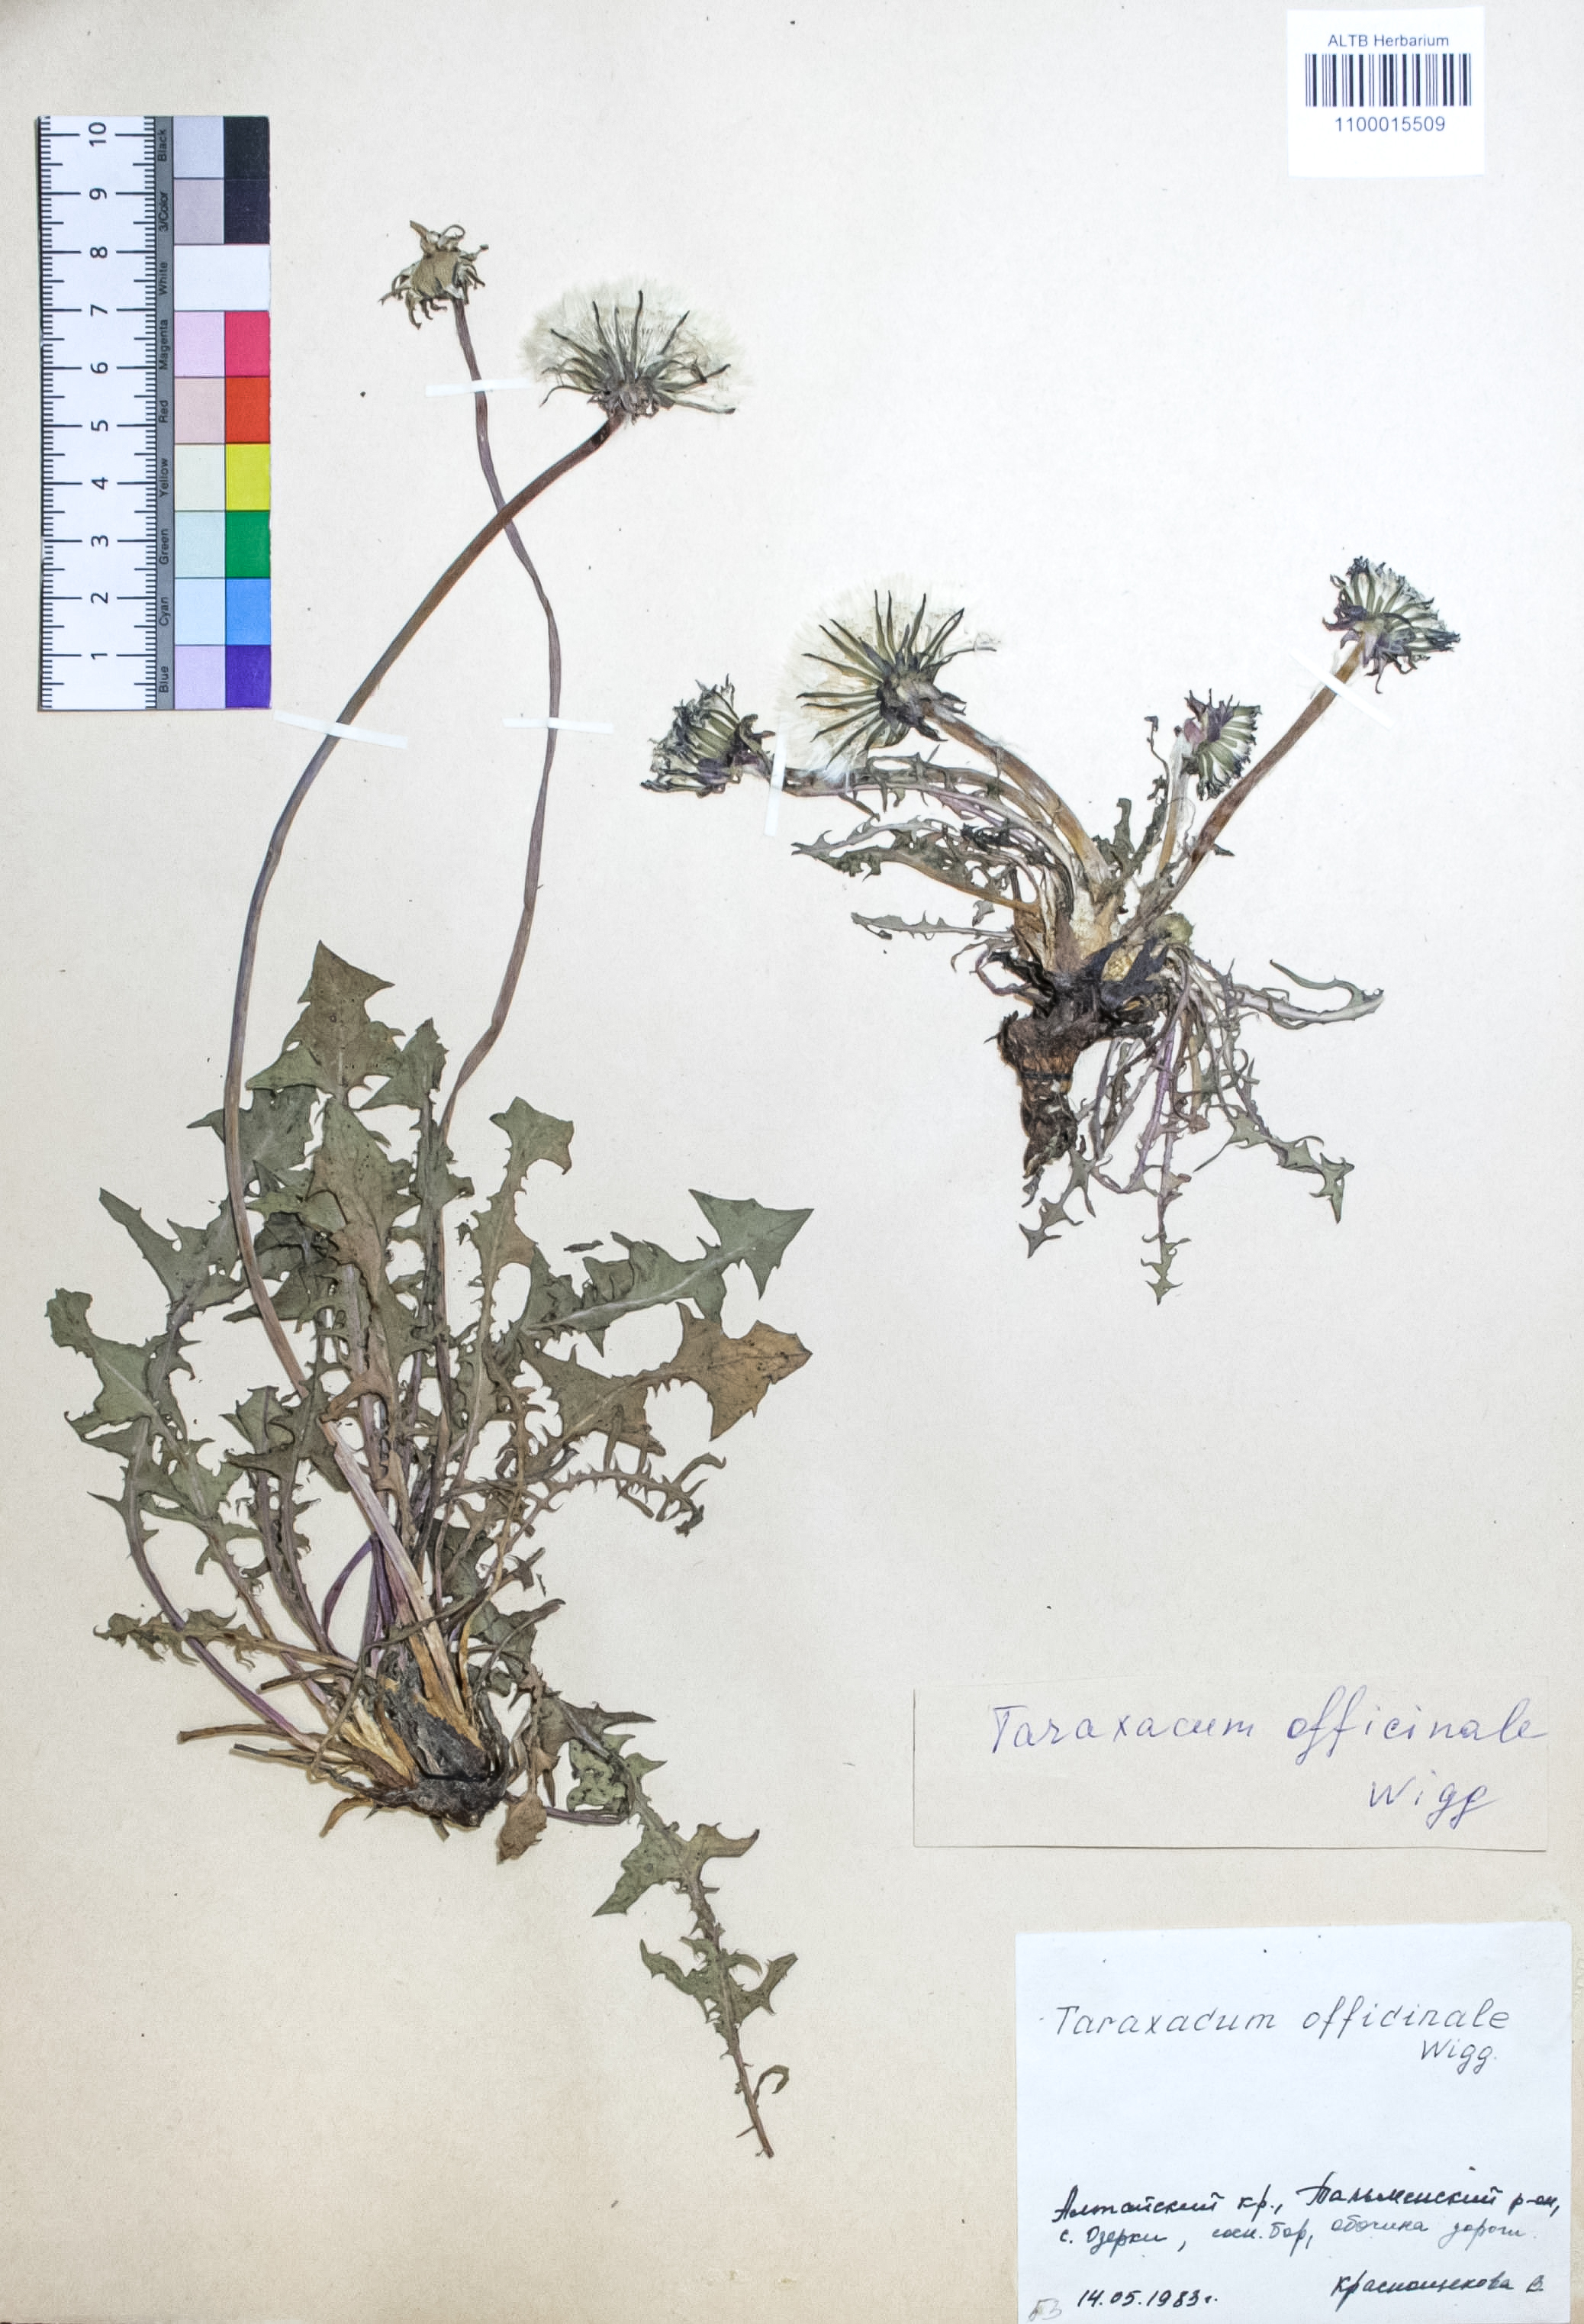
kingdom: Plantae
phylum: Tracheophyta
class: Magnoliopsida
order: Asterales
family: Asteraceae
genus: Taraxacum
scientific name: Taraxacum officinale
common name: Common dandelion
